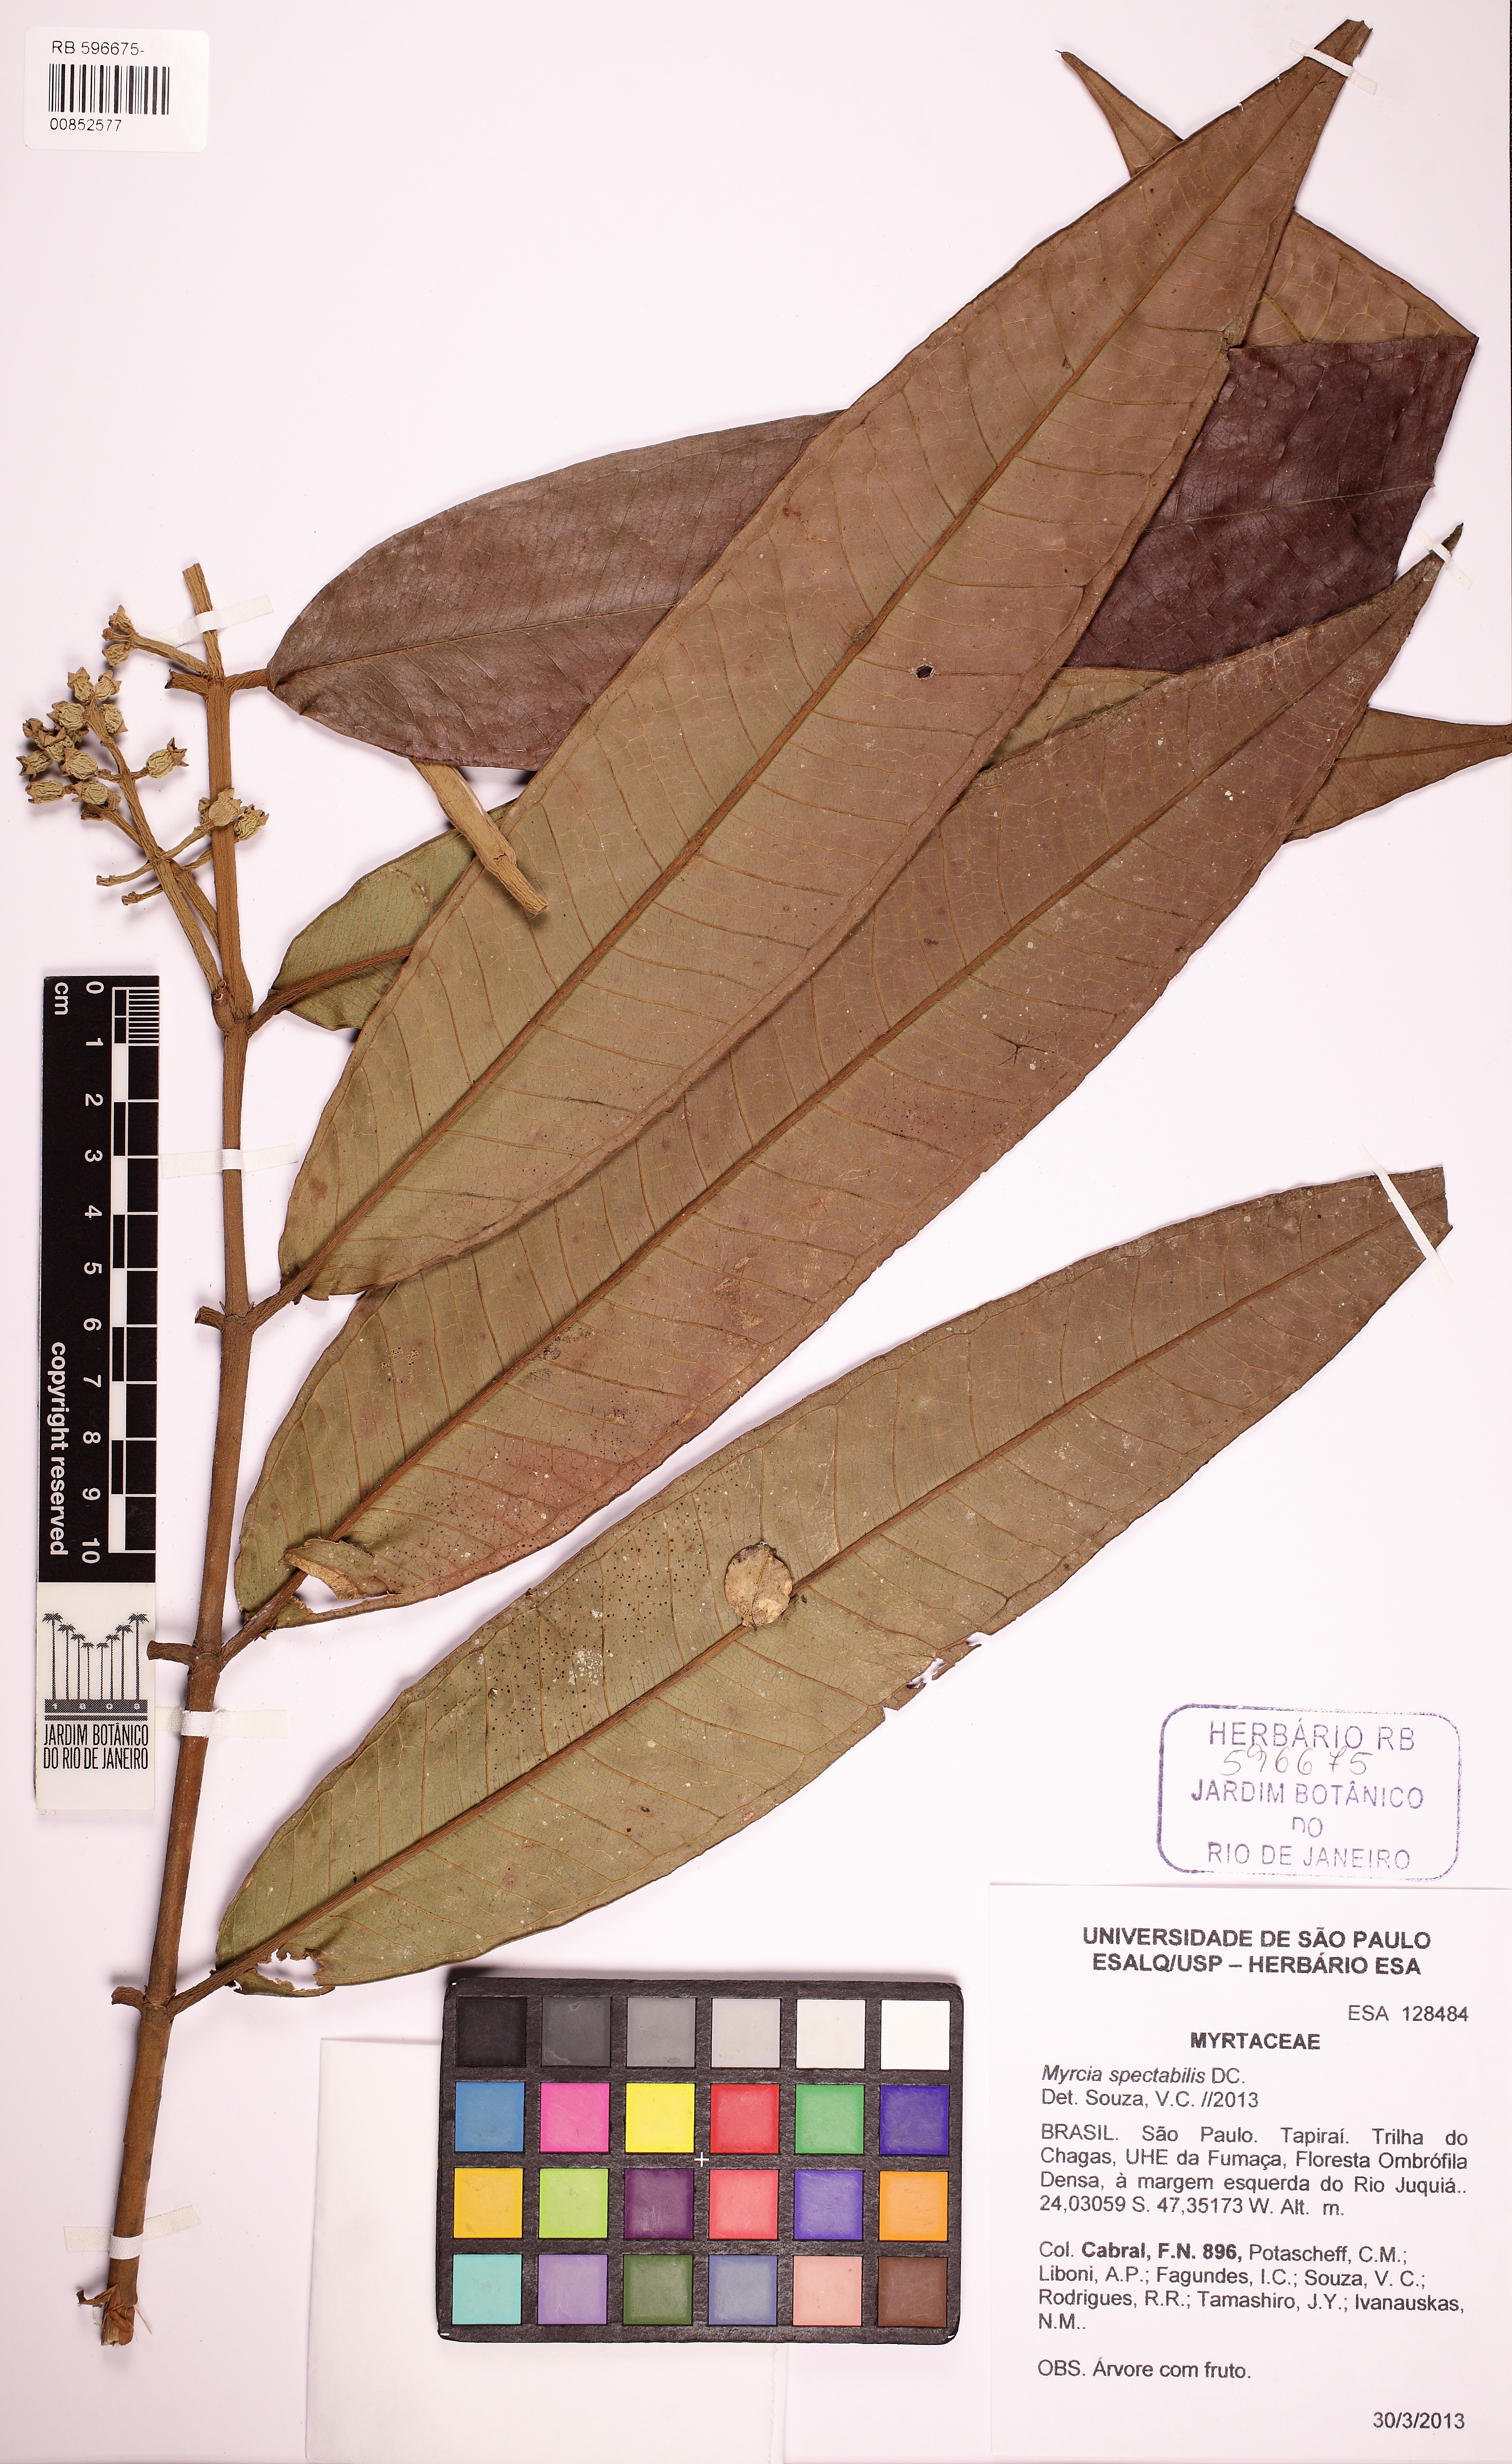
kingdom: Plantae
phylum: Tracheophyta
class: Magnoliopsida
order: Myrtales
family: Myrtaceae
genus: Myrcia
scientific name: Myrcia spectabilis
